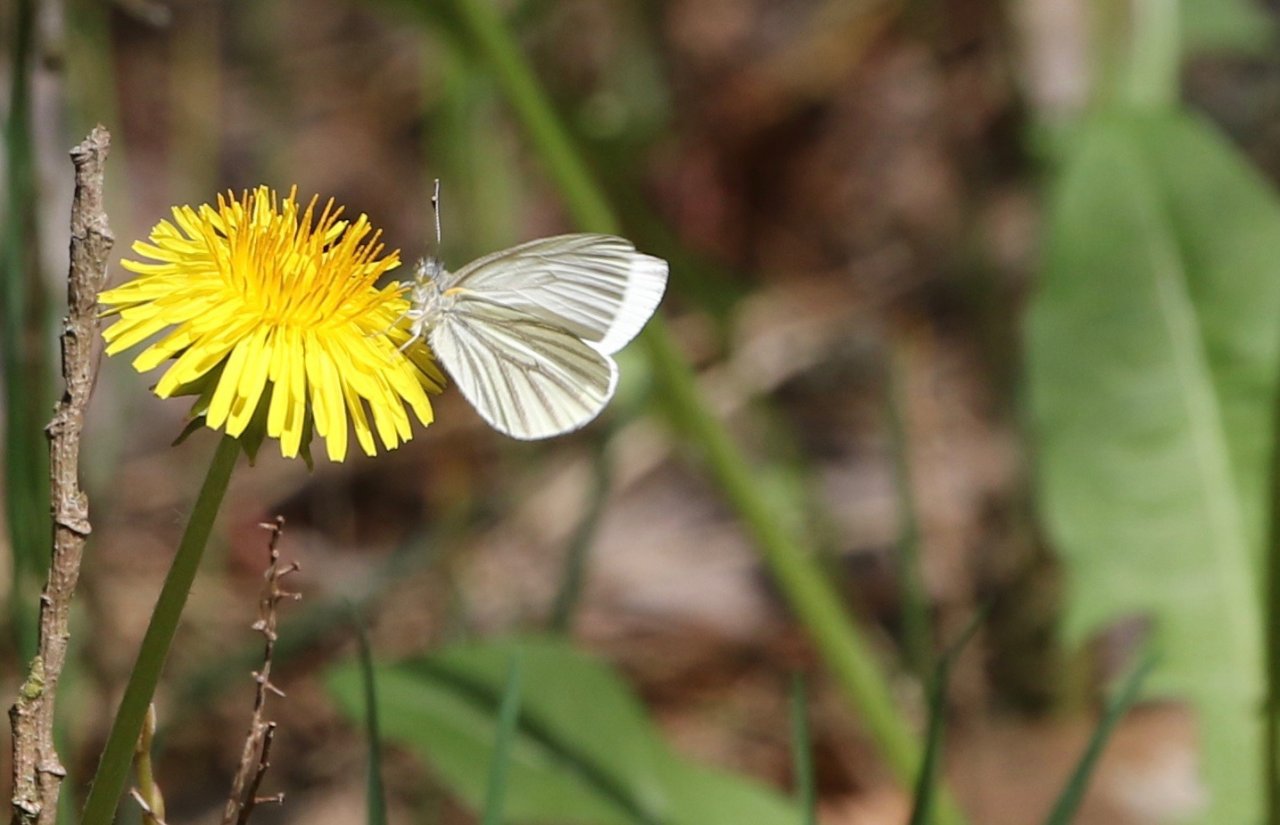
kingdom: Animalia
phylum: Arthropoda
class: Insecta
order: Lepidoptera
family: Pieridae
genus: Pieris
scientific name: Pieris oleracea
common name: Mustard White
